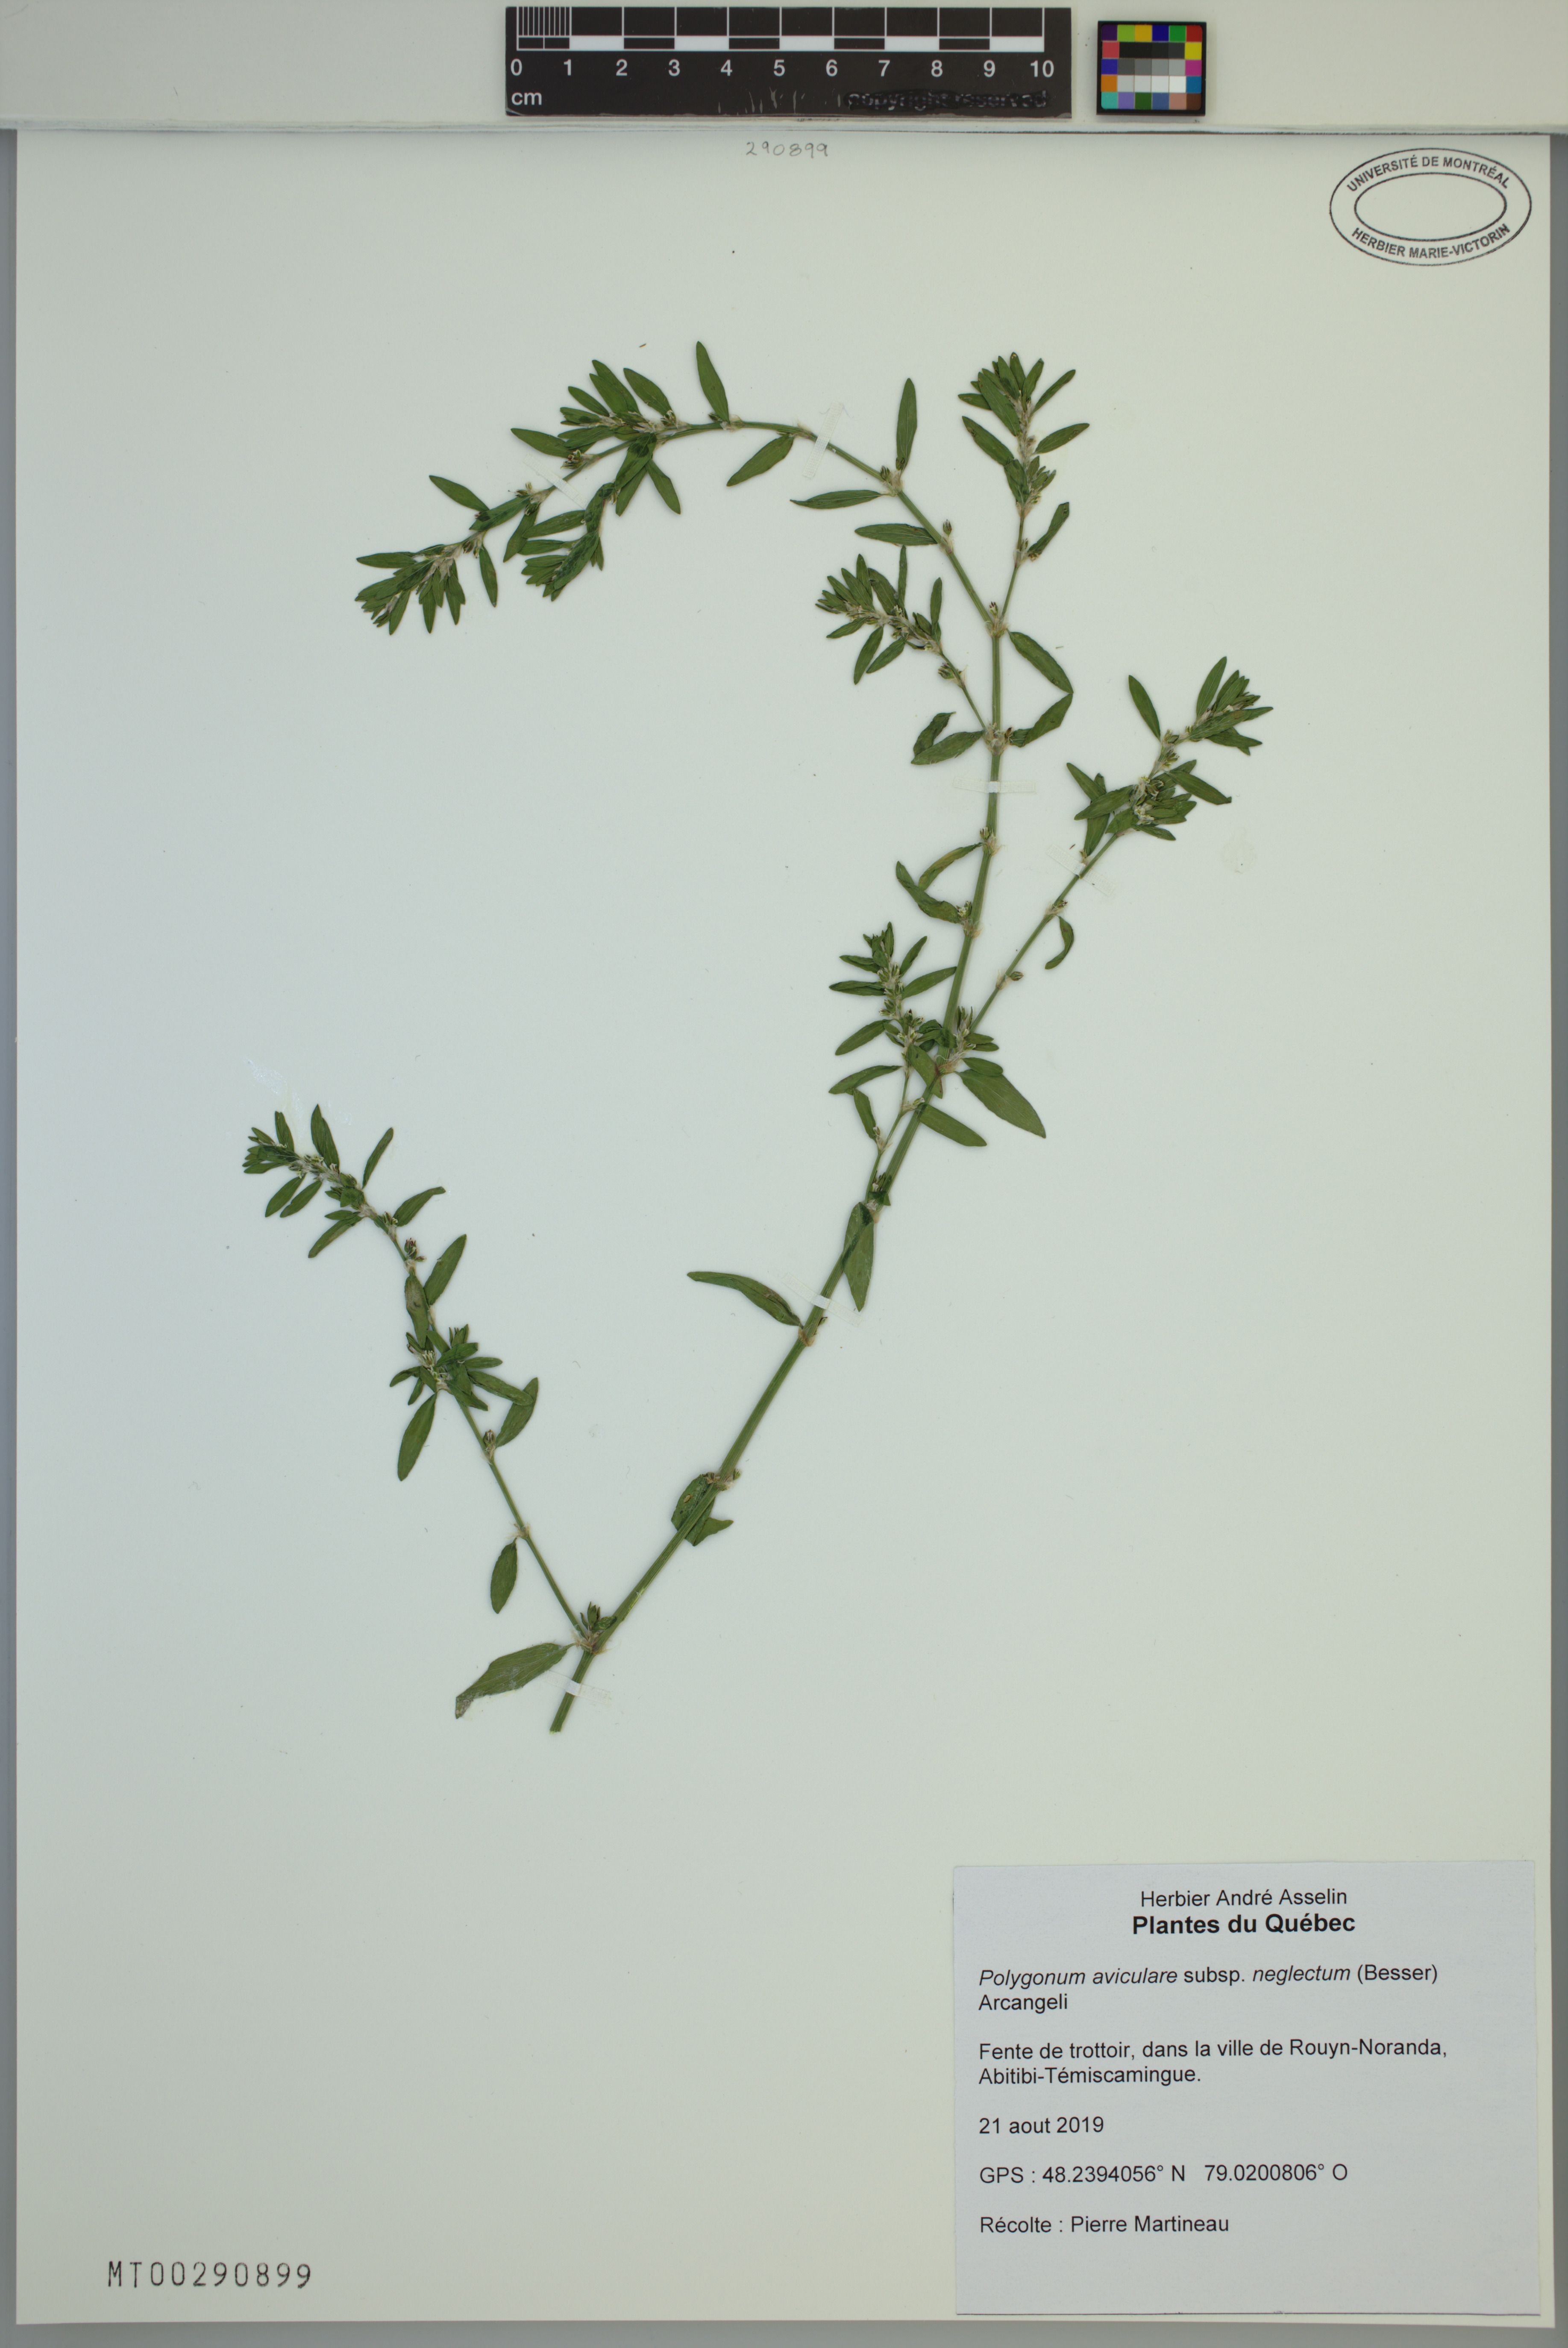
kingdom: Plantae
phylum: Tracheophyta
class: Magnoliopsida
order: Caryophyllales
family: Polygonaceae
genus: Polygonum
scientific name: Polygonum aviculare
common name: Prostrate knotweed
